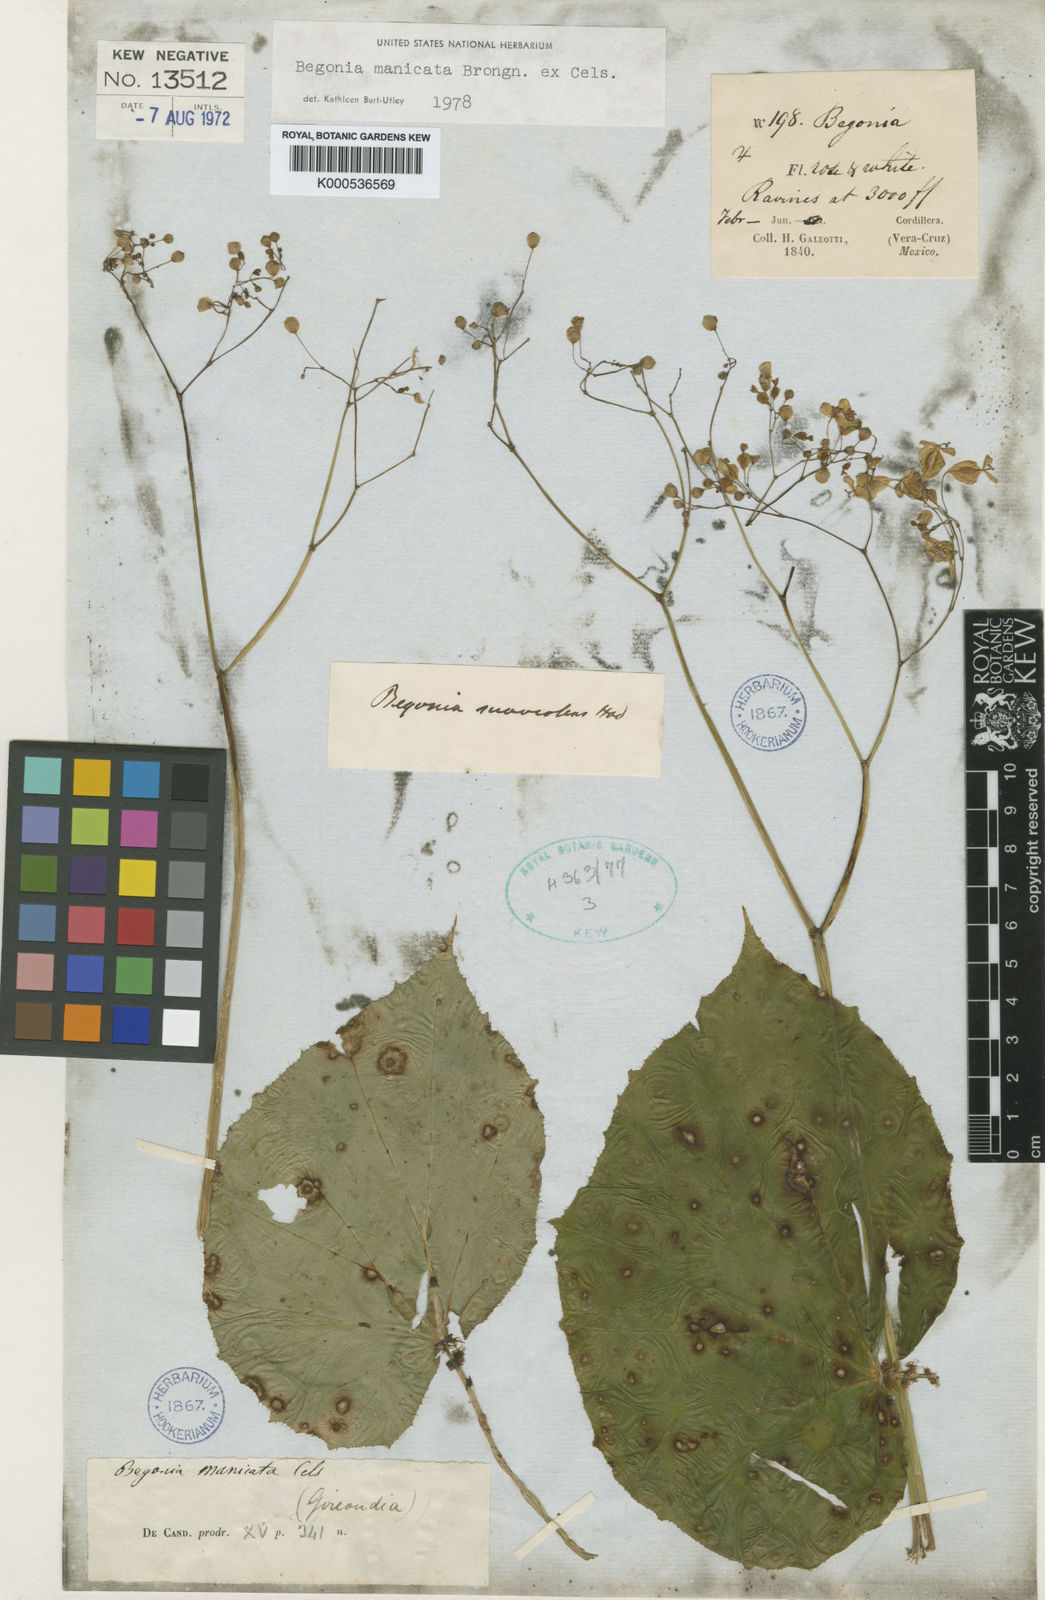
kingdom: Plantae
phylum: Tracheophyta
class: Magnoliopsida
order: Cucurbitales
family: Begoniaceae
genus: Begonia
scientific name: Begonia
